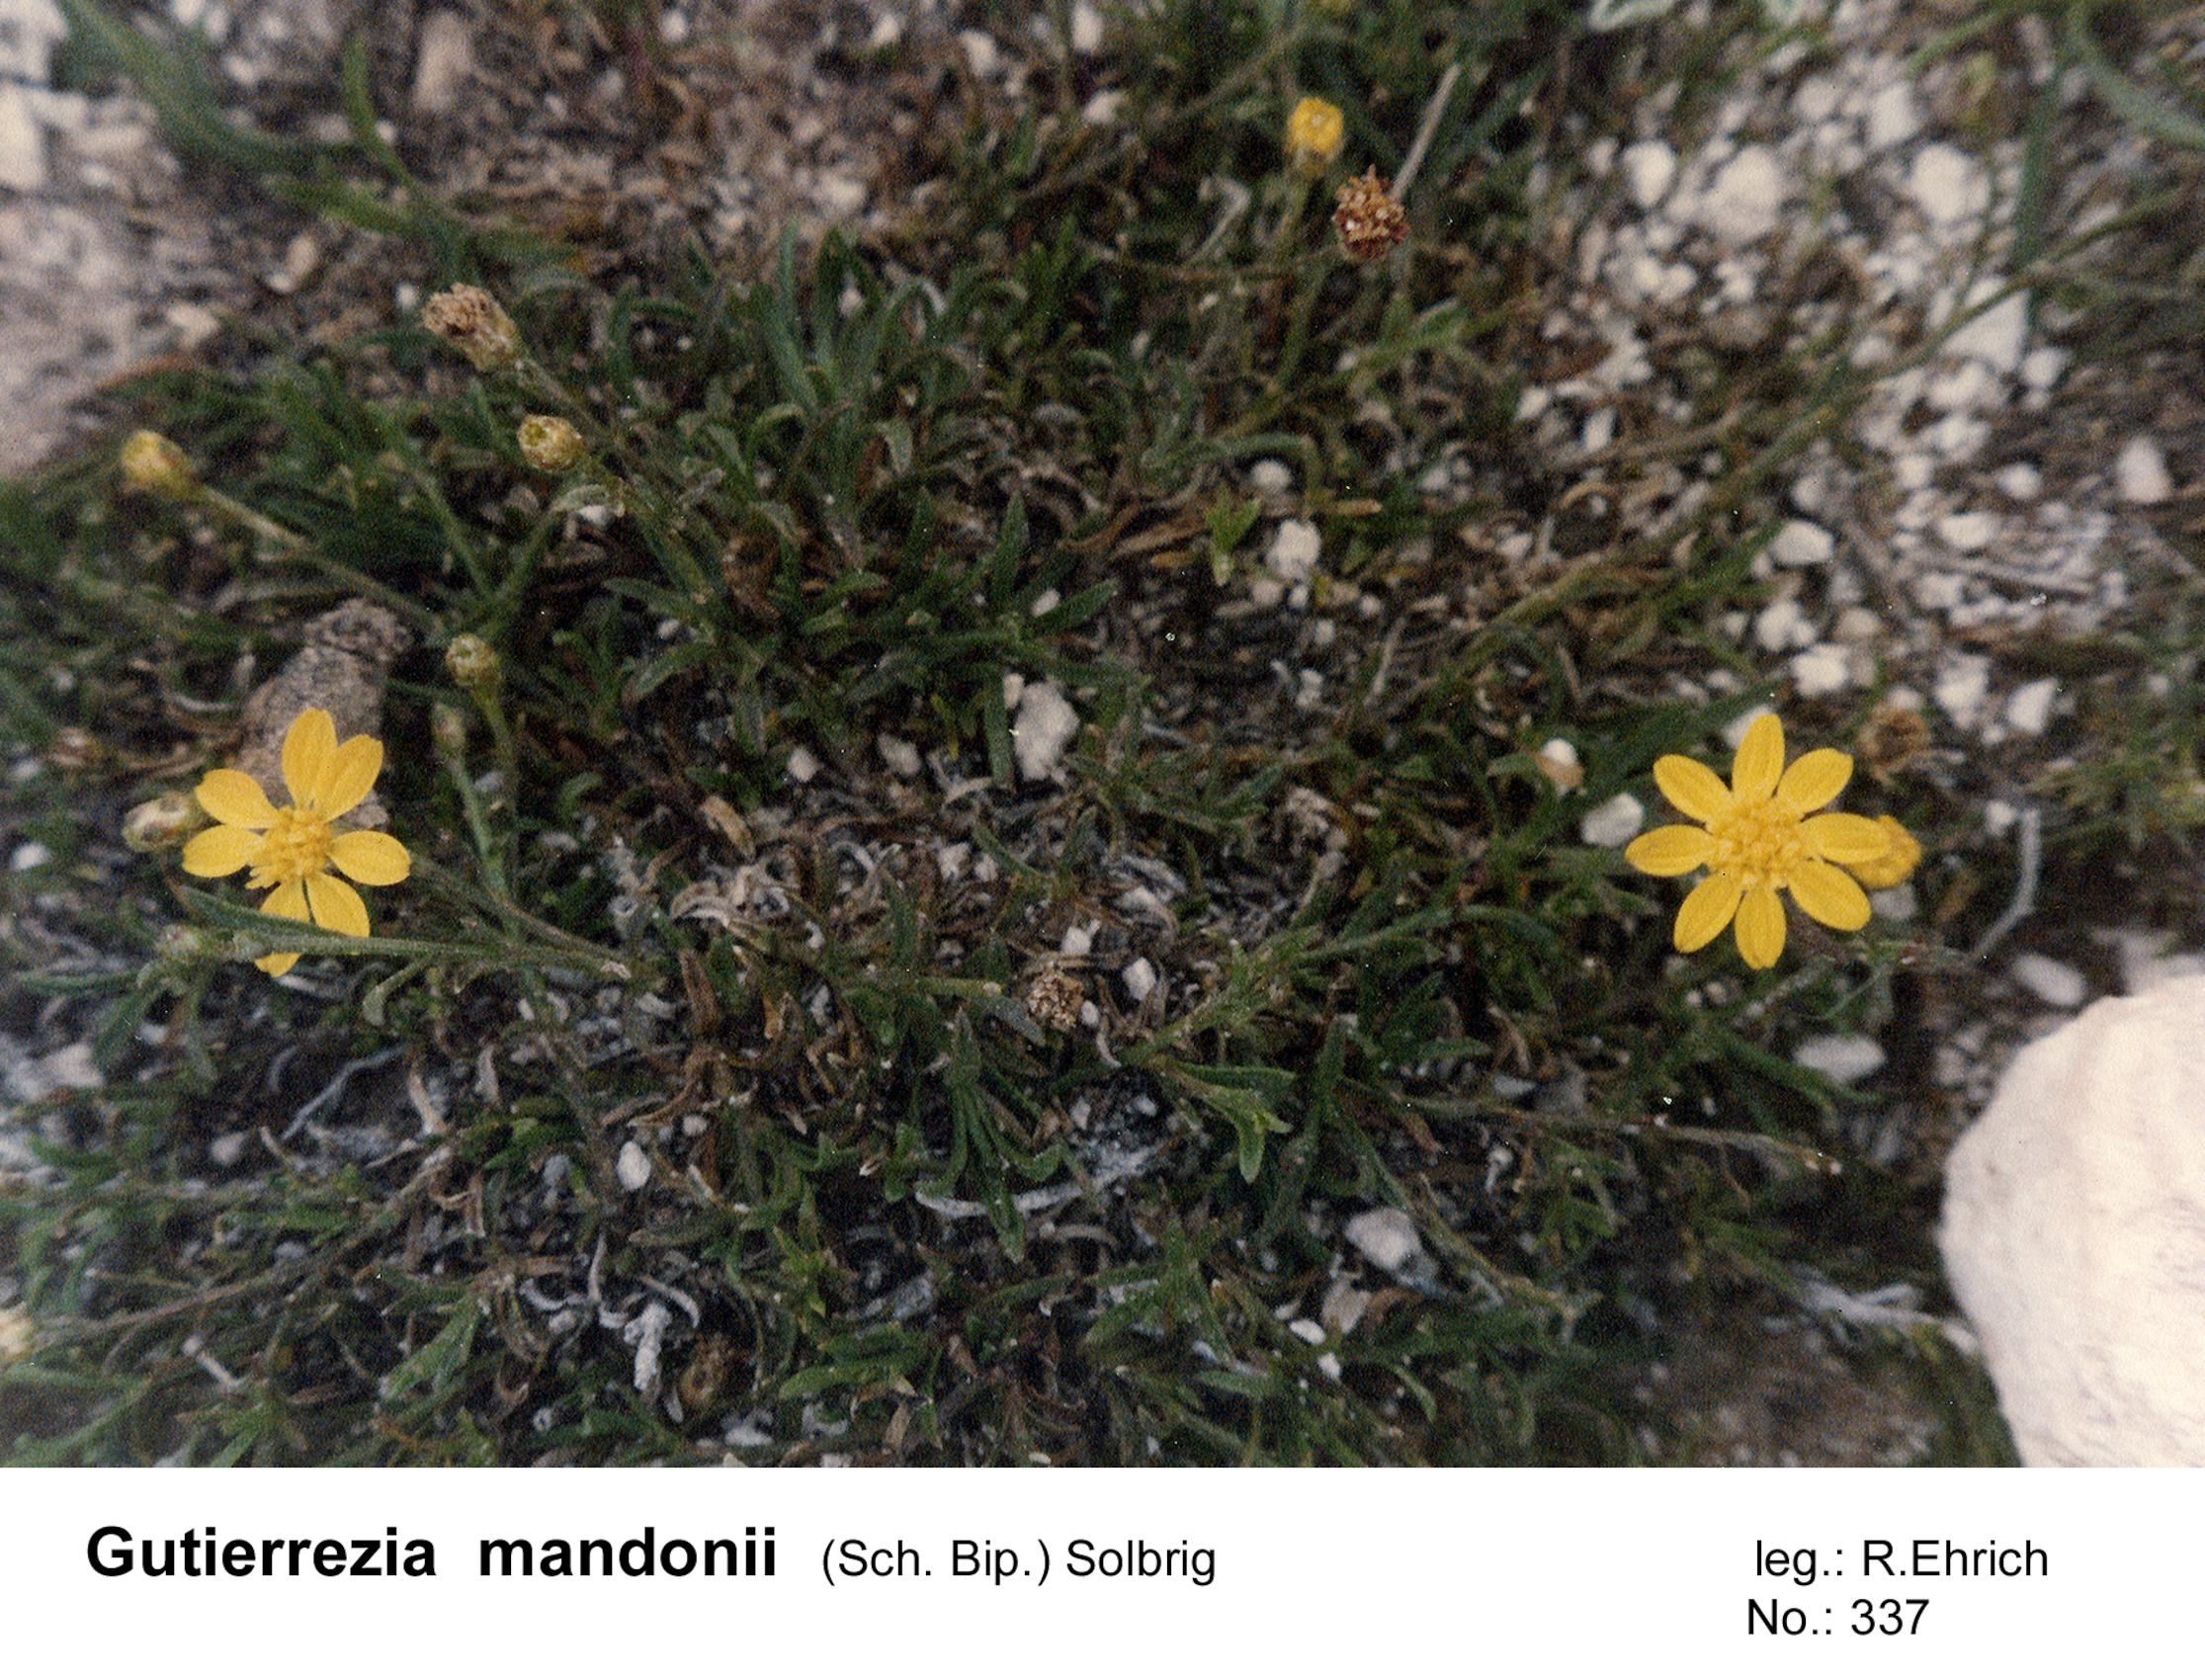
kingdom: Plantae
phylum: Tracheophyta
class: Magnoliopsida
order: Asterales
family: Asteraceae
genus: Gutierrezia
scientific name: Gutierrezia mandonii
